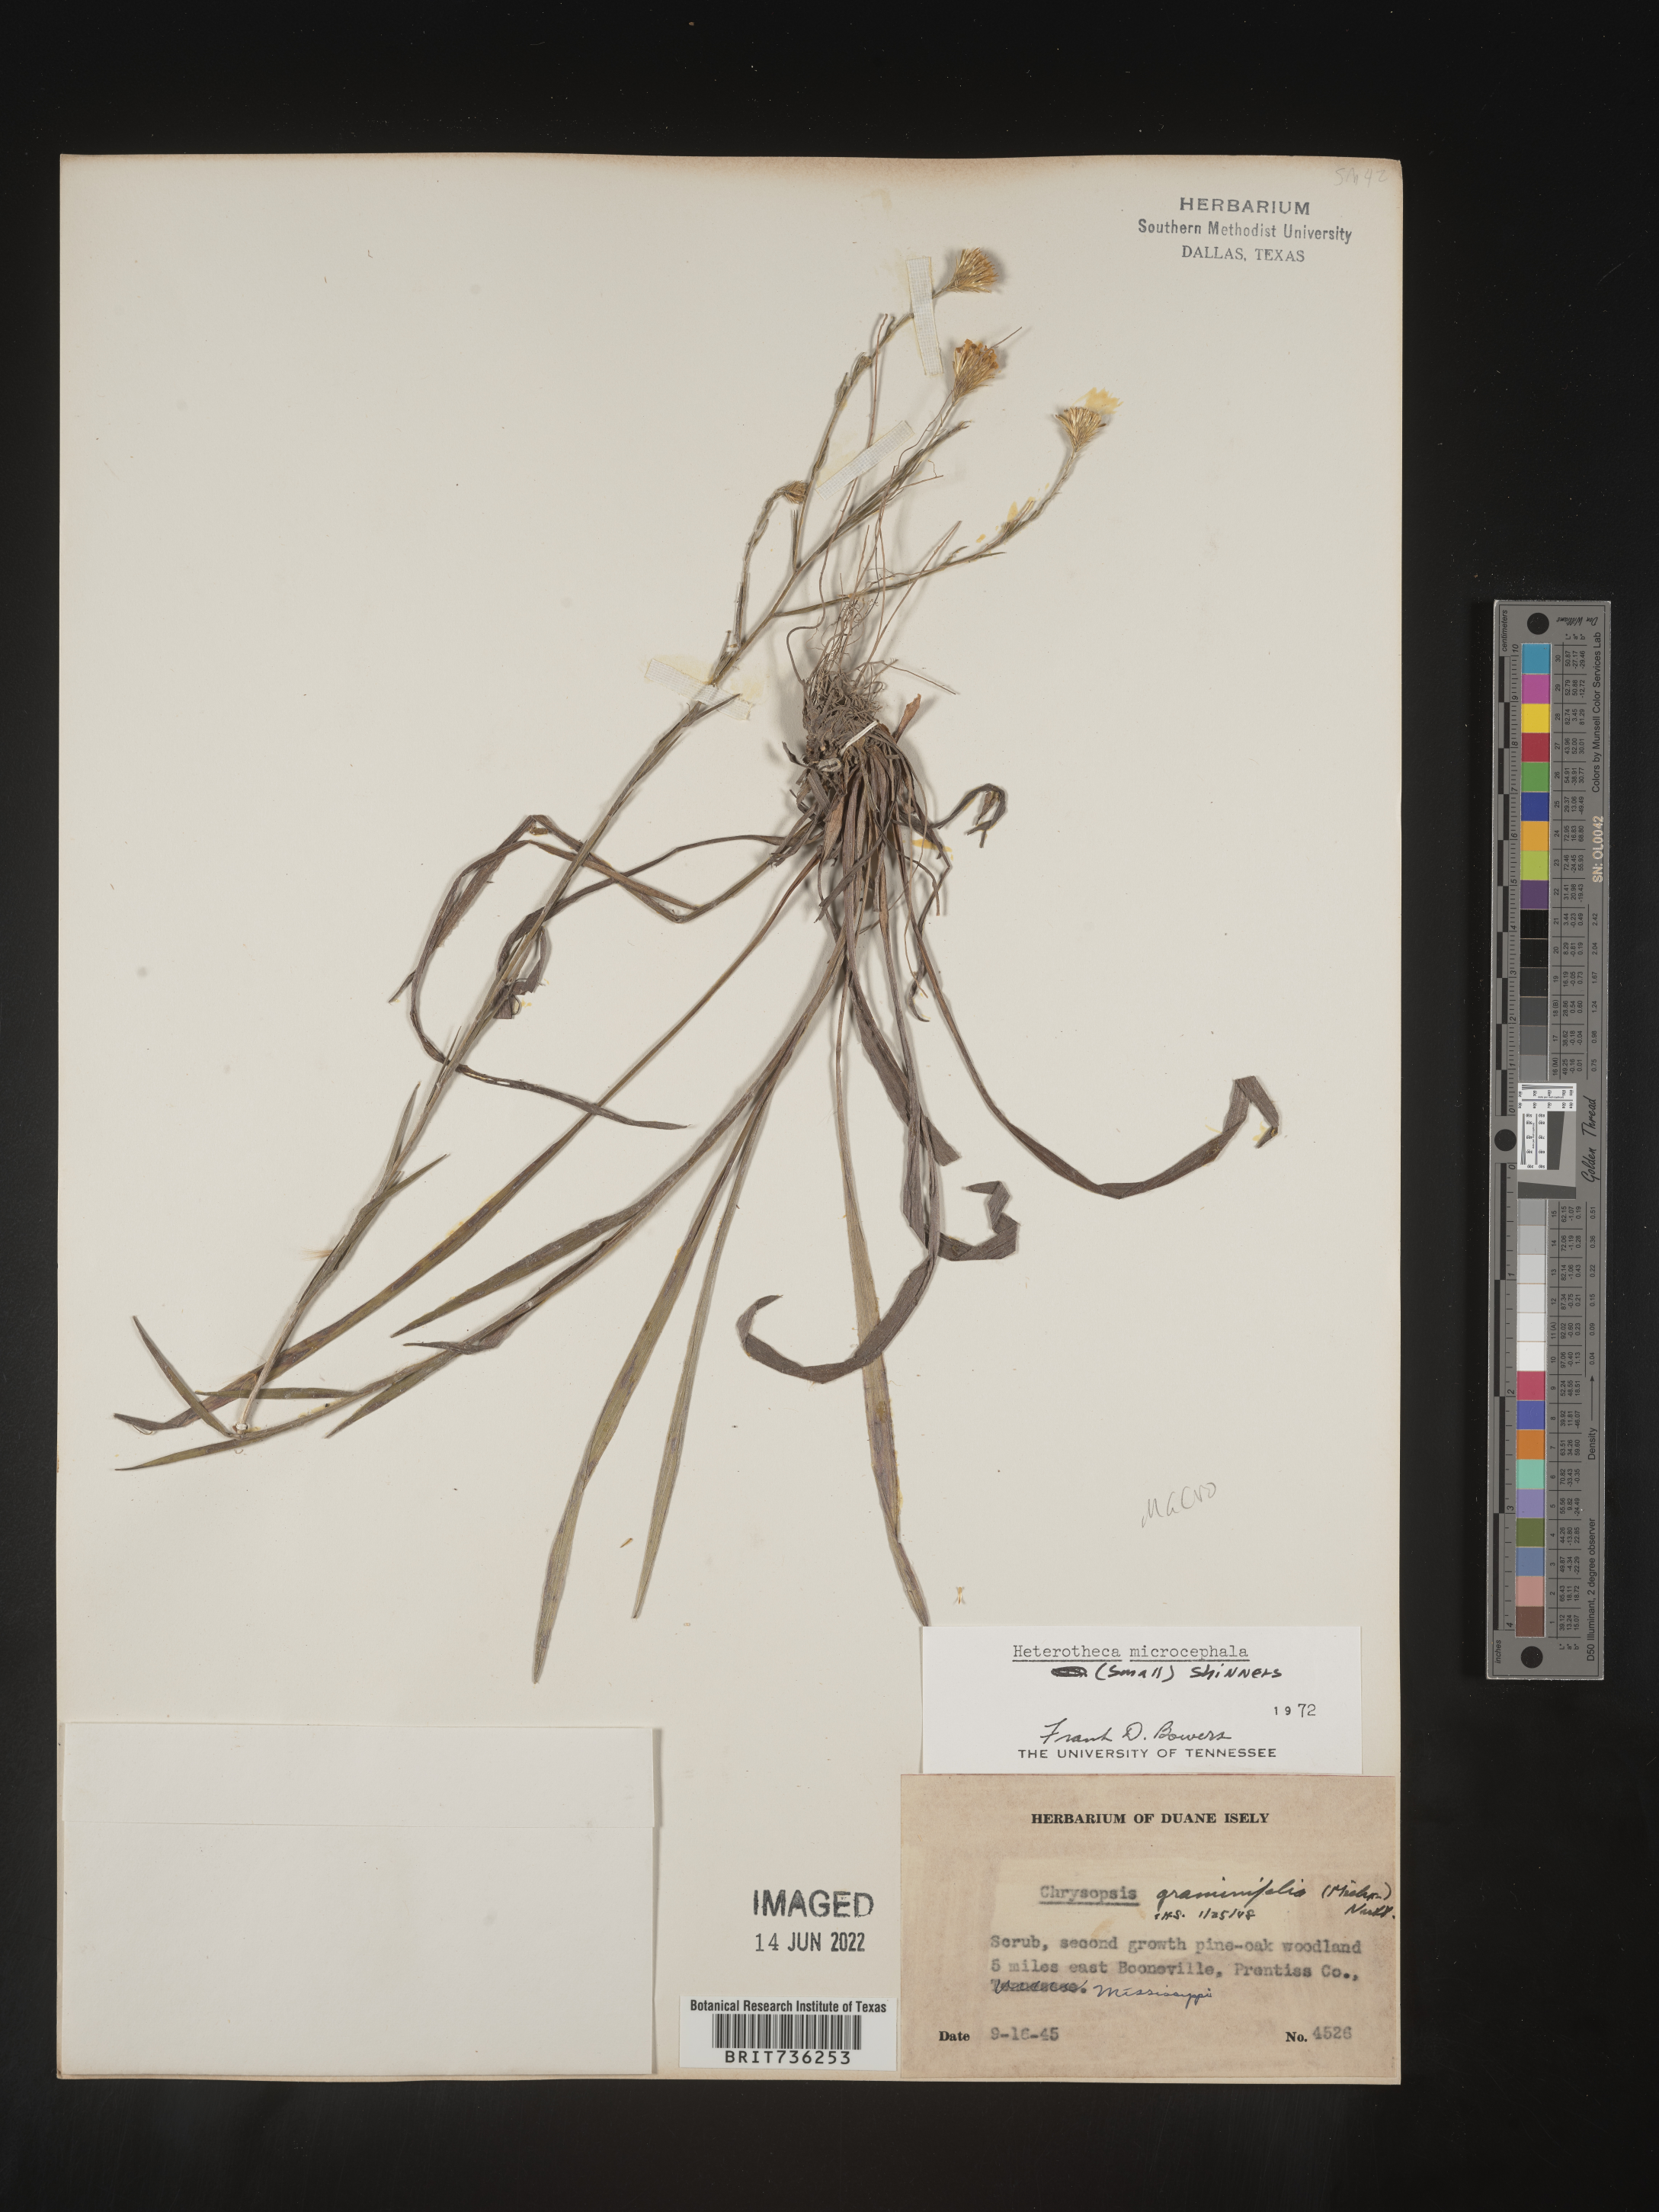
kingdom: Plantae
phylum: Tracheophyta
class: Magnoliopsida
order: Asterales
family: Asteraceae
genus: Pityopsis
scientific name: Pityopsis graminifolia
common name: Grass-leaf golden-aster
